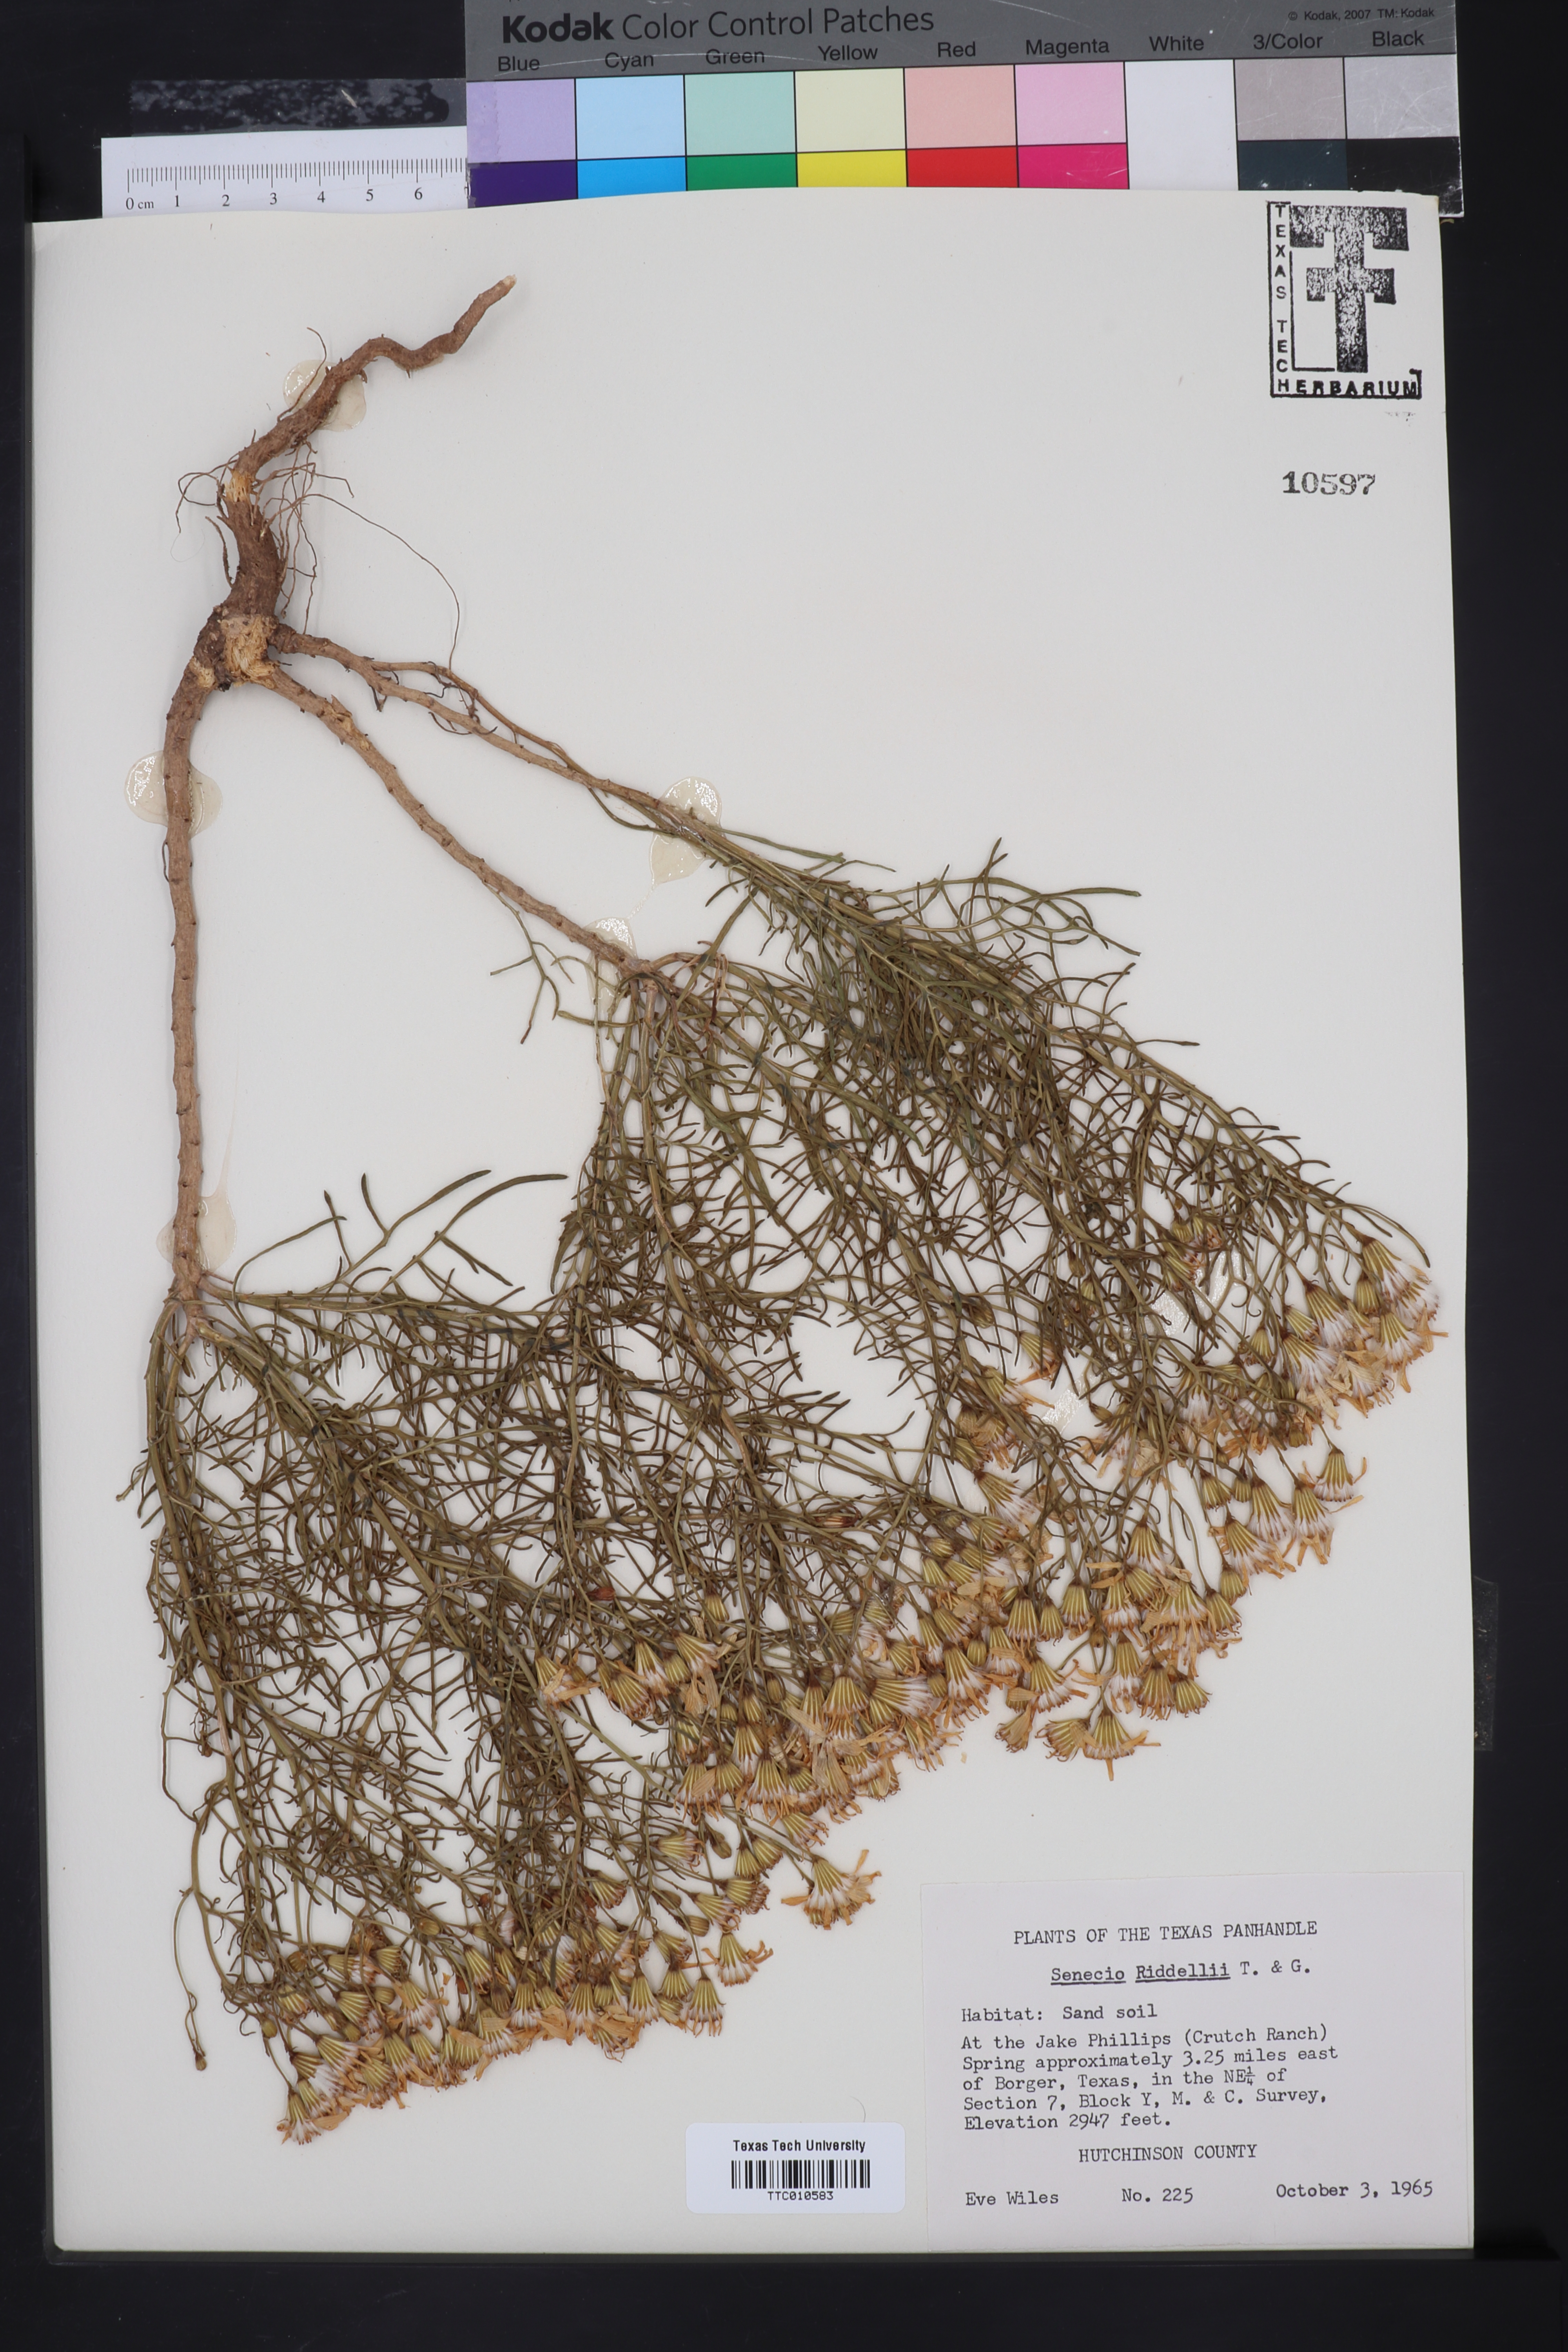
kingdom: Plantae
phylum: Tracheophyta
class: Magnoliopsida
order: Asterales
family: Asteraceae
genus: Senecio
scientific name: Senecio riddellii
